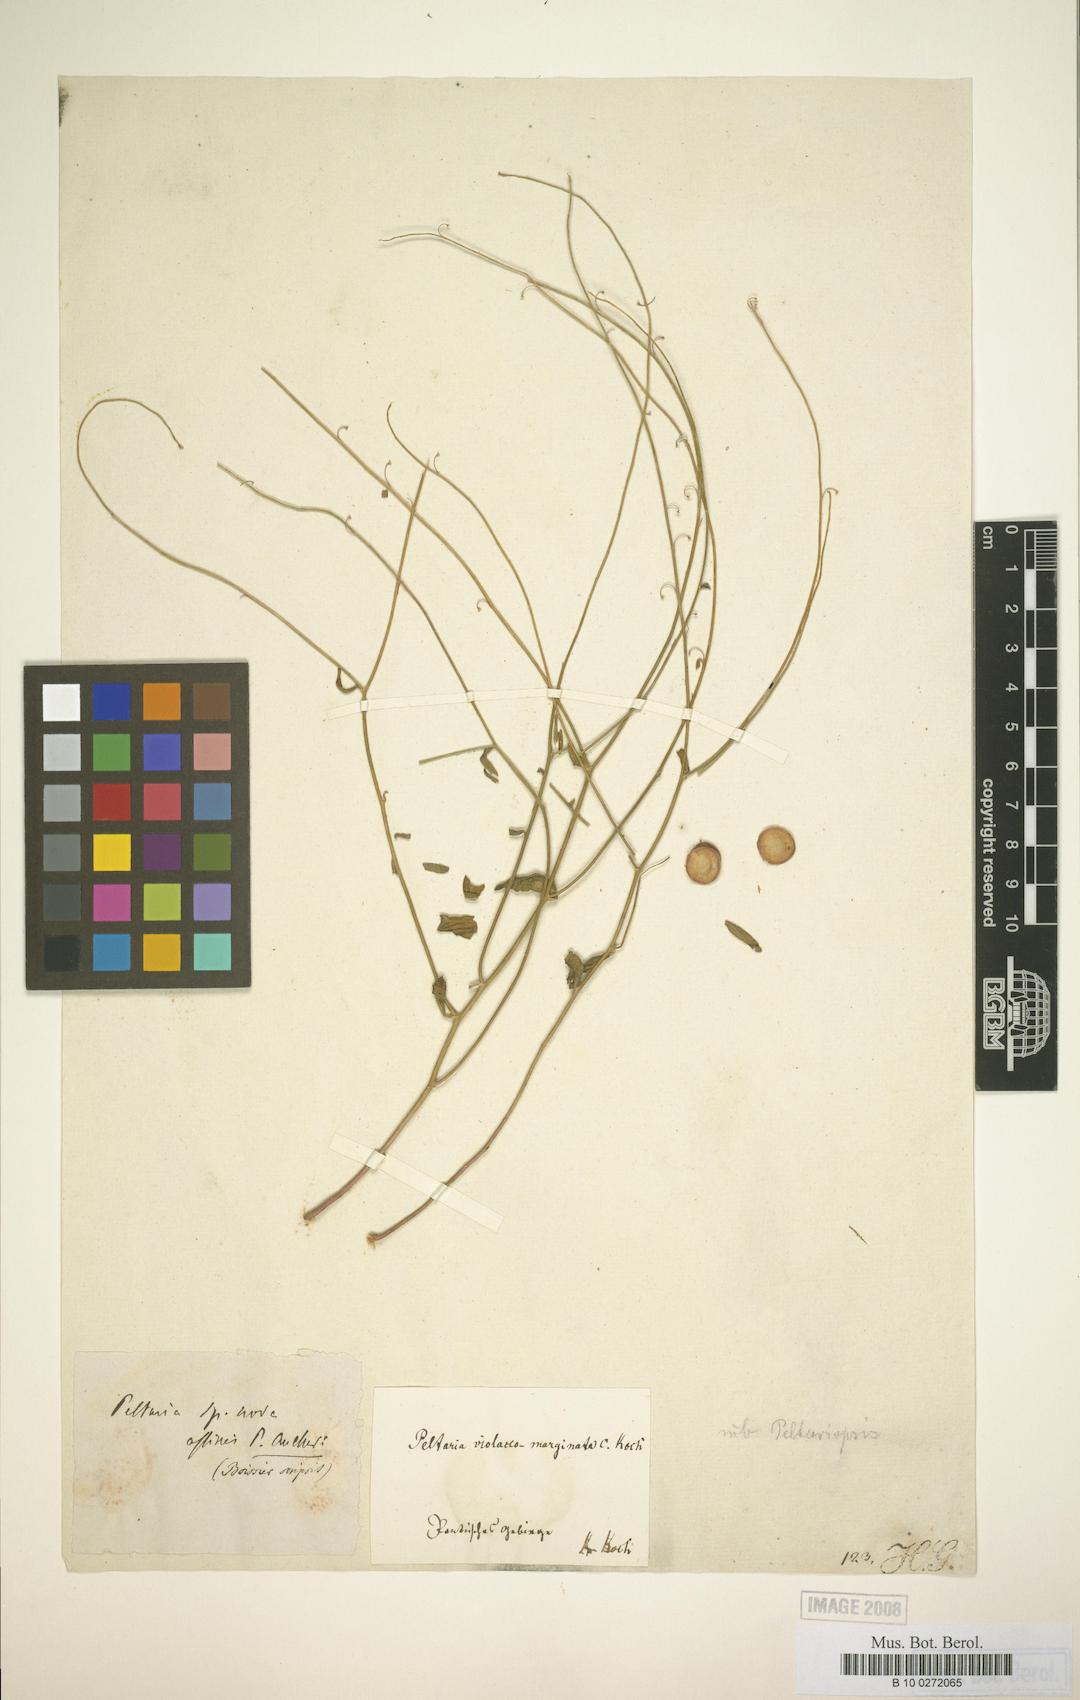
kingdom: Plantae
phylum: Tracheophyta
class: Magnoliopsida
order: Brassicales
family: Brassicaceae
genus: Peltariopsis
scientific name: Peltariopsis
